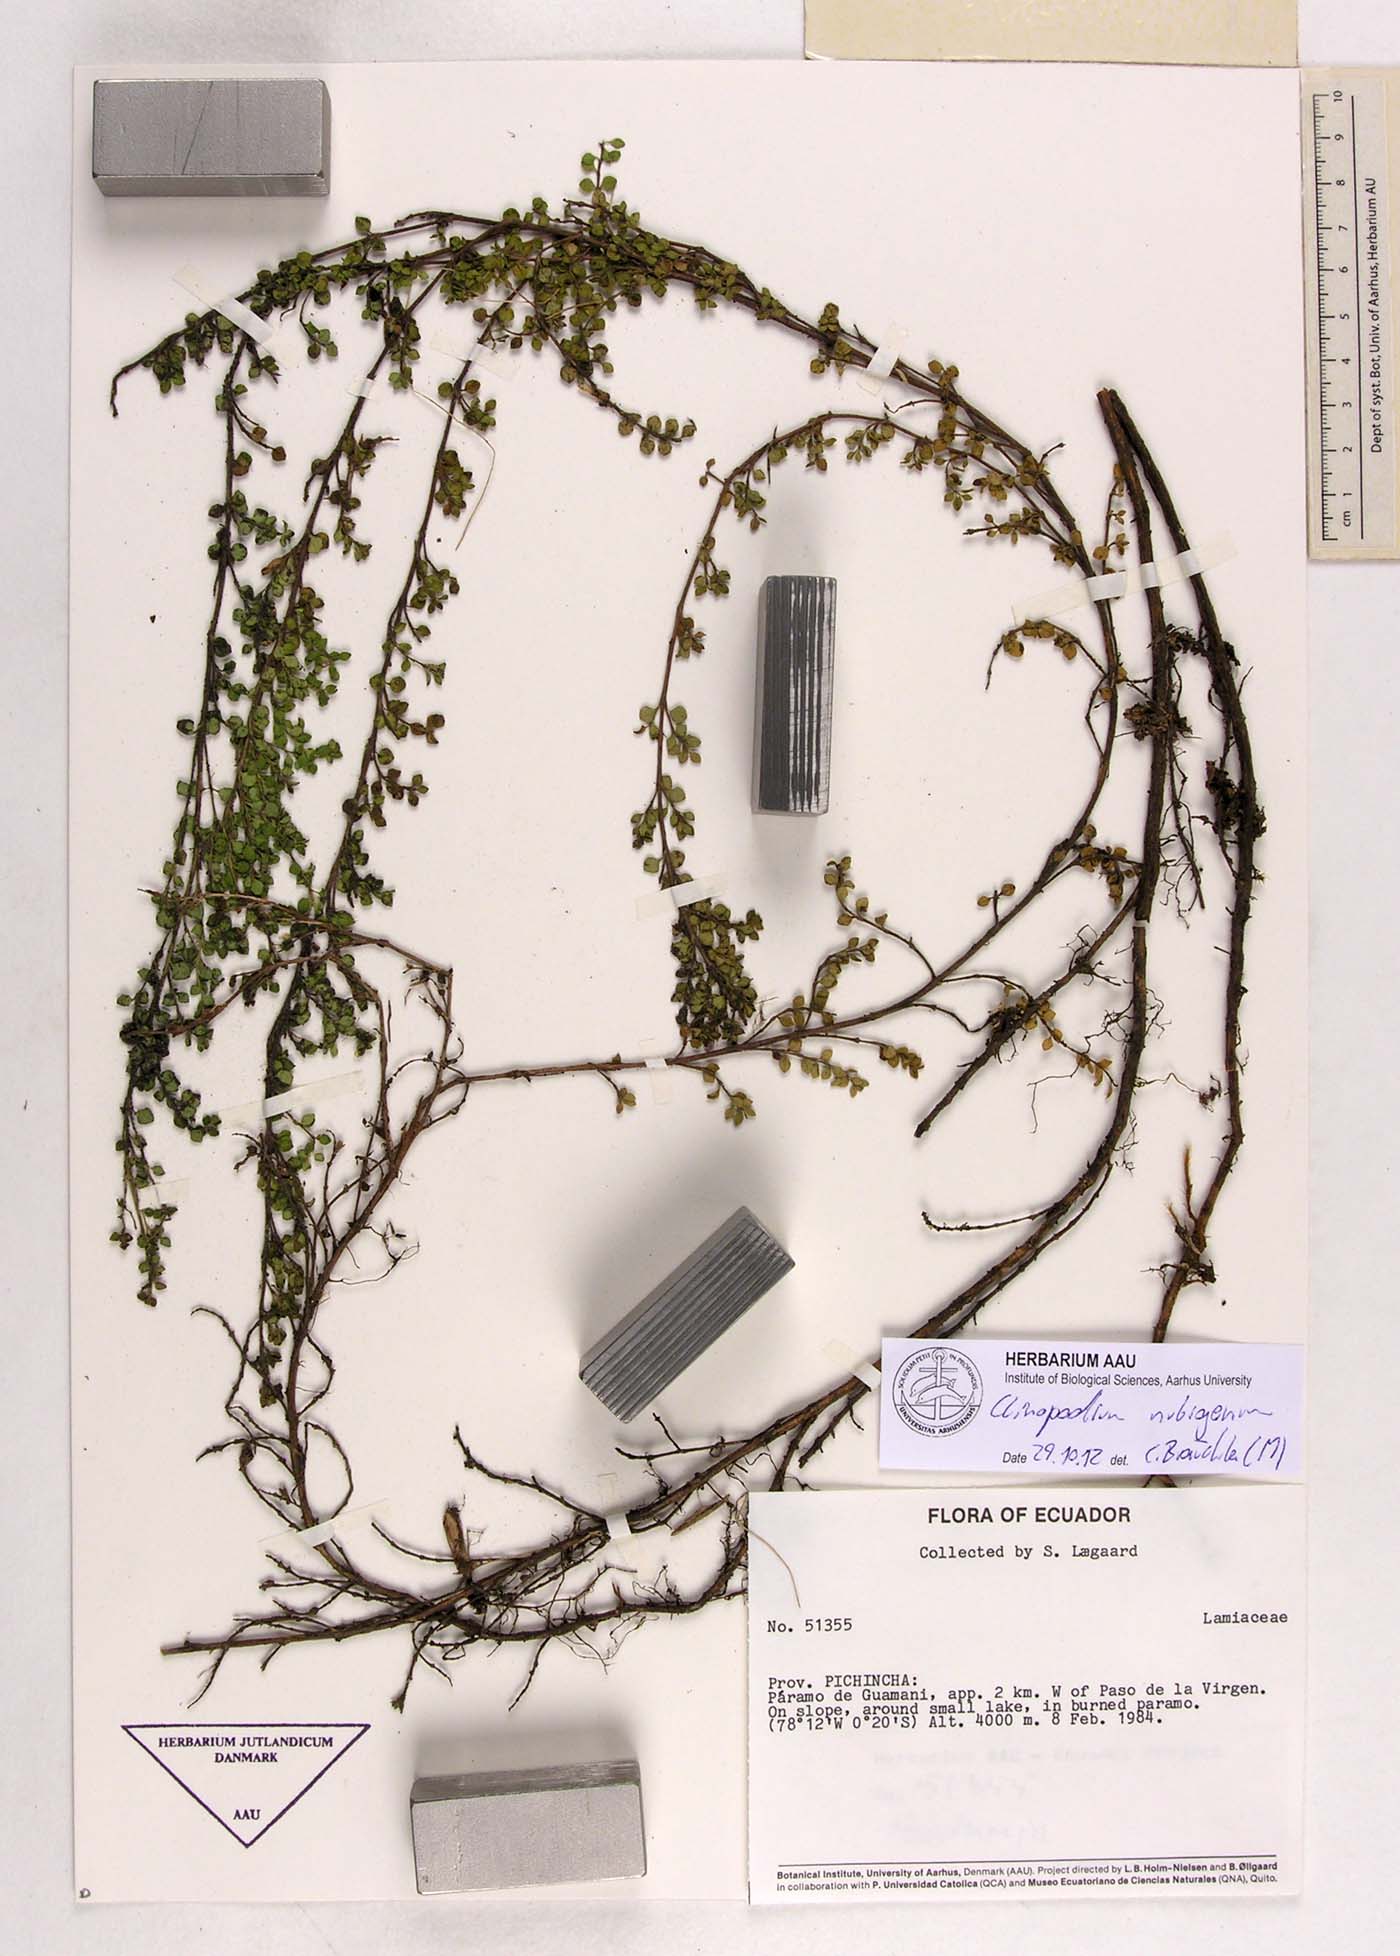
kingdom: Plantae
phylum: Tracheophyta
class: Magnoliopsida
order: Lamiales
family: Lamiaceae
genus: Clinopodium
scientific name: Clinopodium nubigenum
